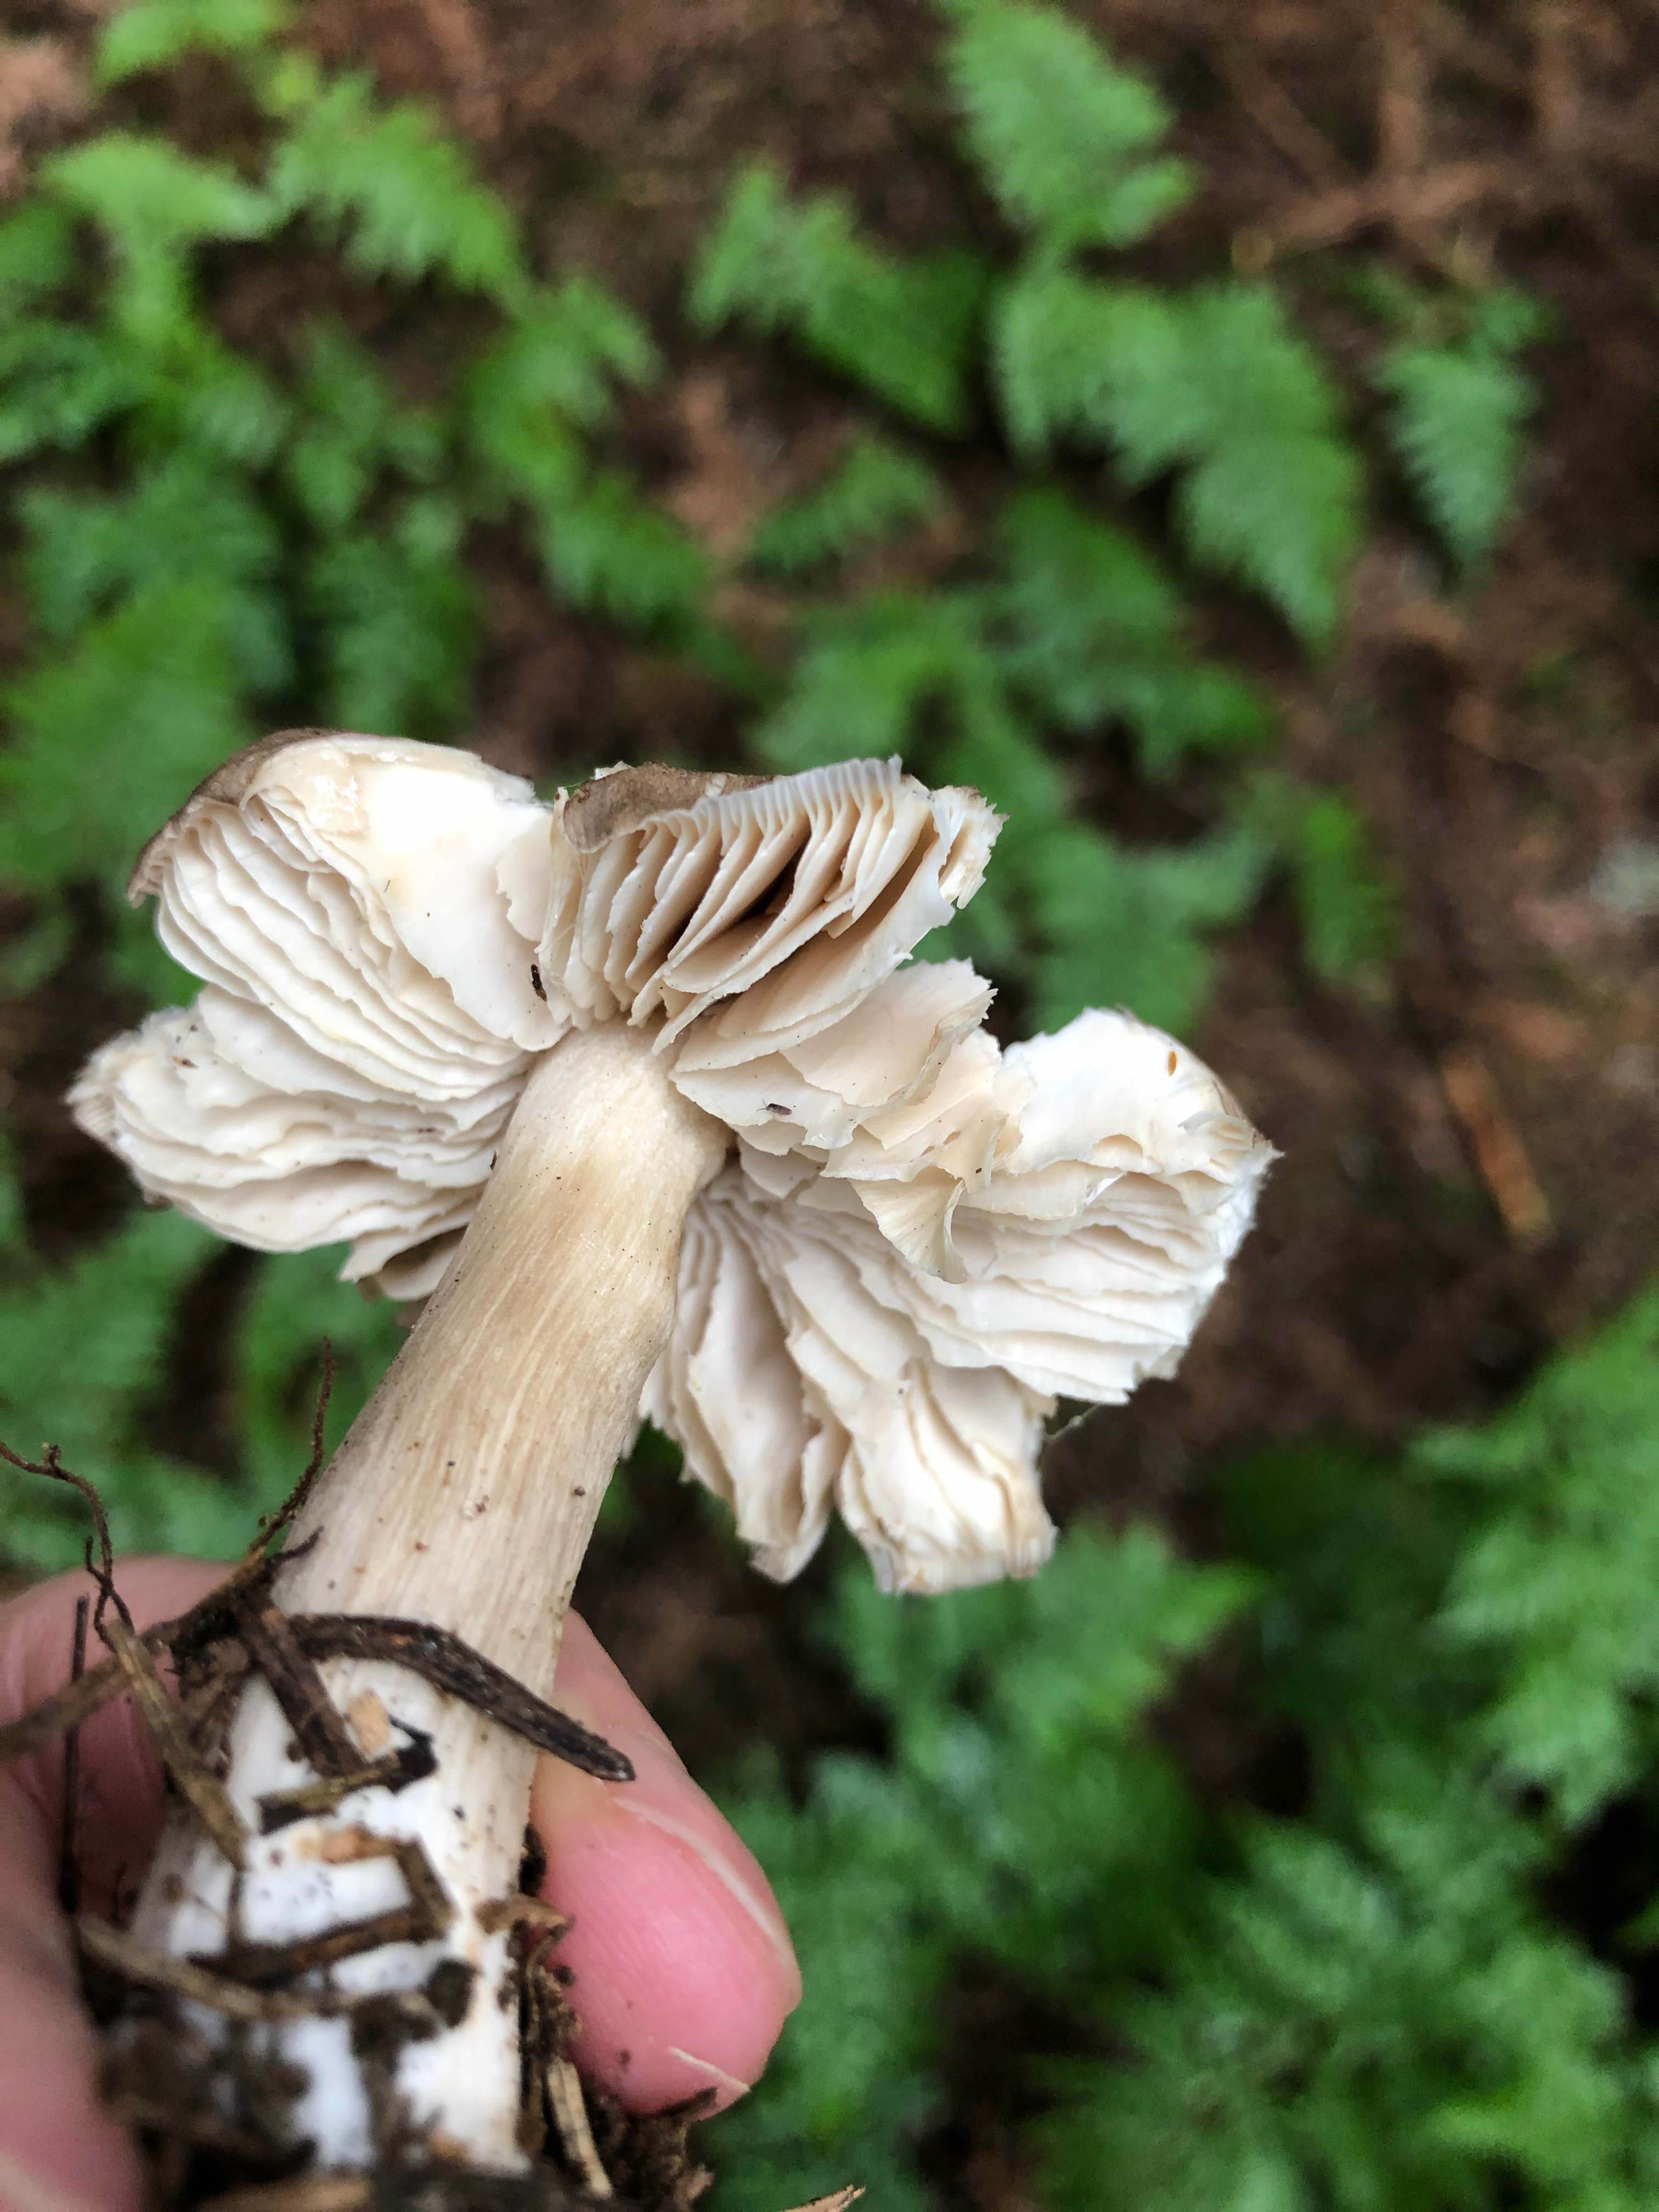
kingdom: Fungi
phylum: Basidiomycota
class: Agaricomycetes
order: Agaricales
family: Tricholomataceae
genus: Megacollybia
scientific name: Megacollybia platyphylla
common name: bredbladet væbnerhat
